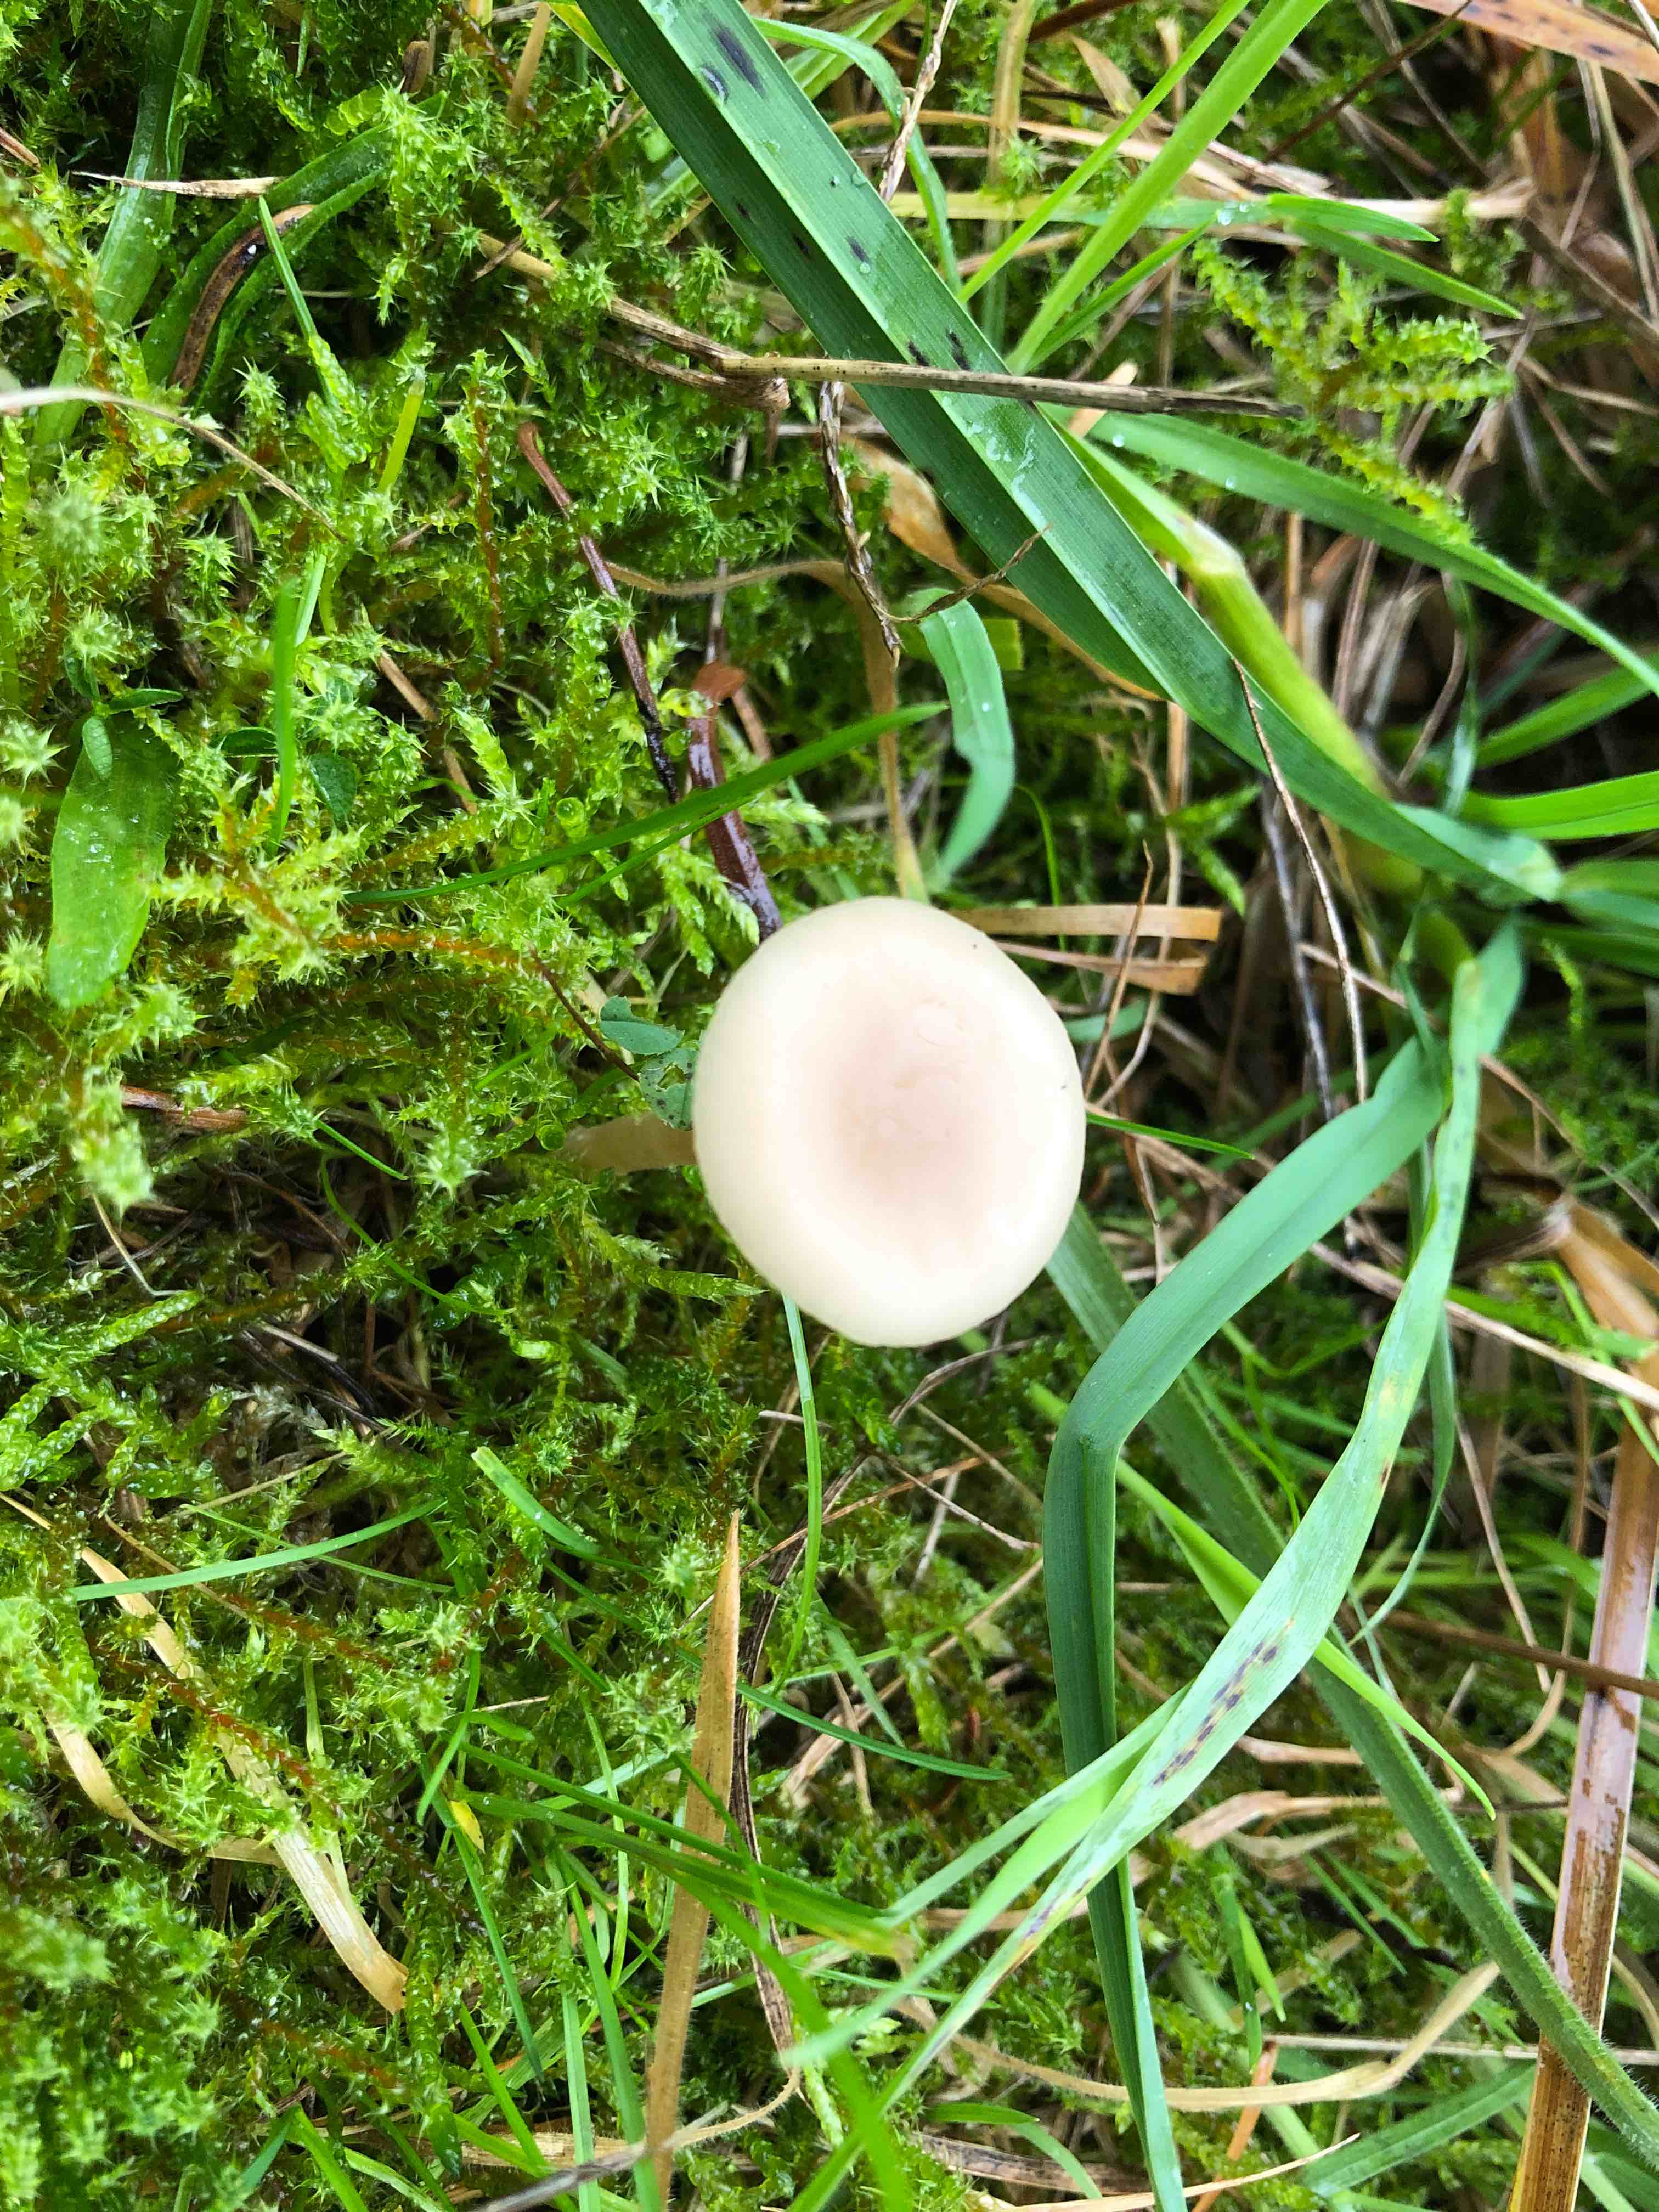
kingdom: Fungi
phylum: Basidiomycota
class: Agaricomycetes
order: Agaricales
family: Tricholomataceae
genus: Clitocybe
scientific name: Clitocybe fragrans
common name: vellugtende tragthat
